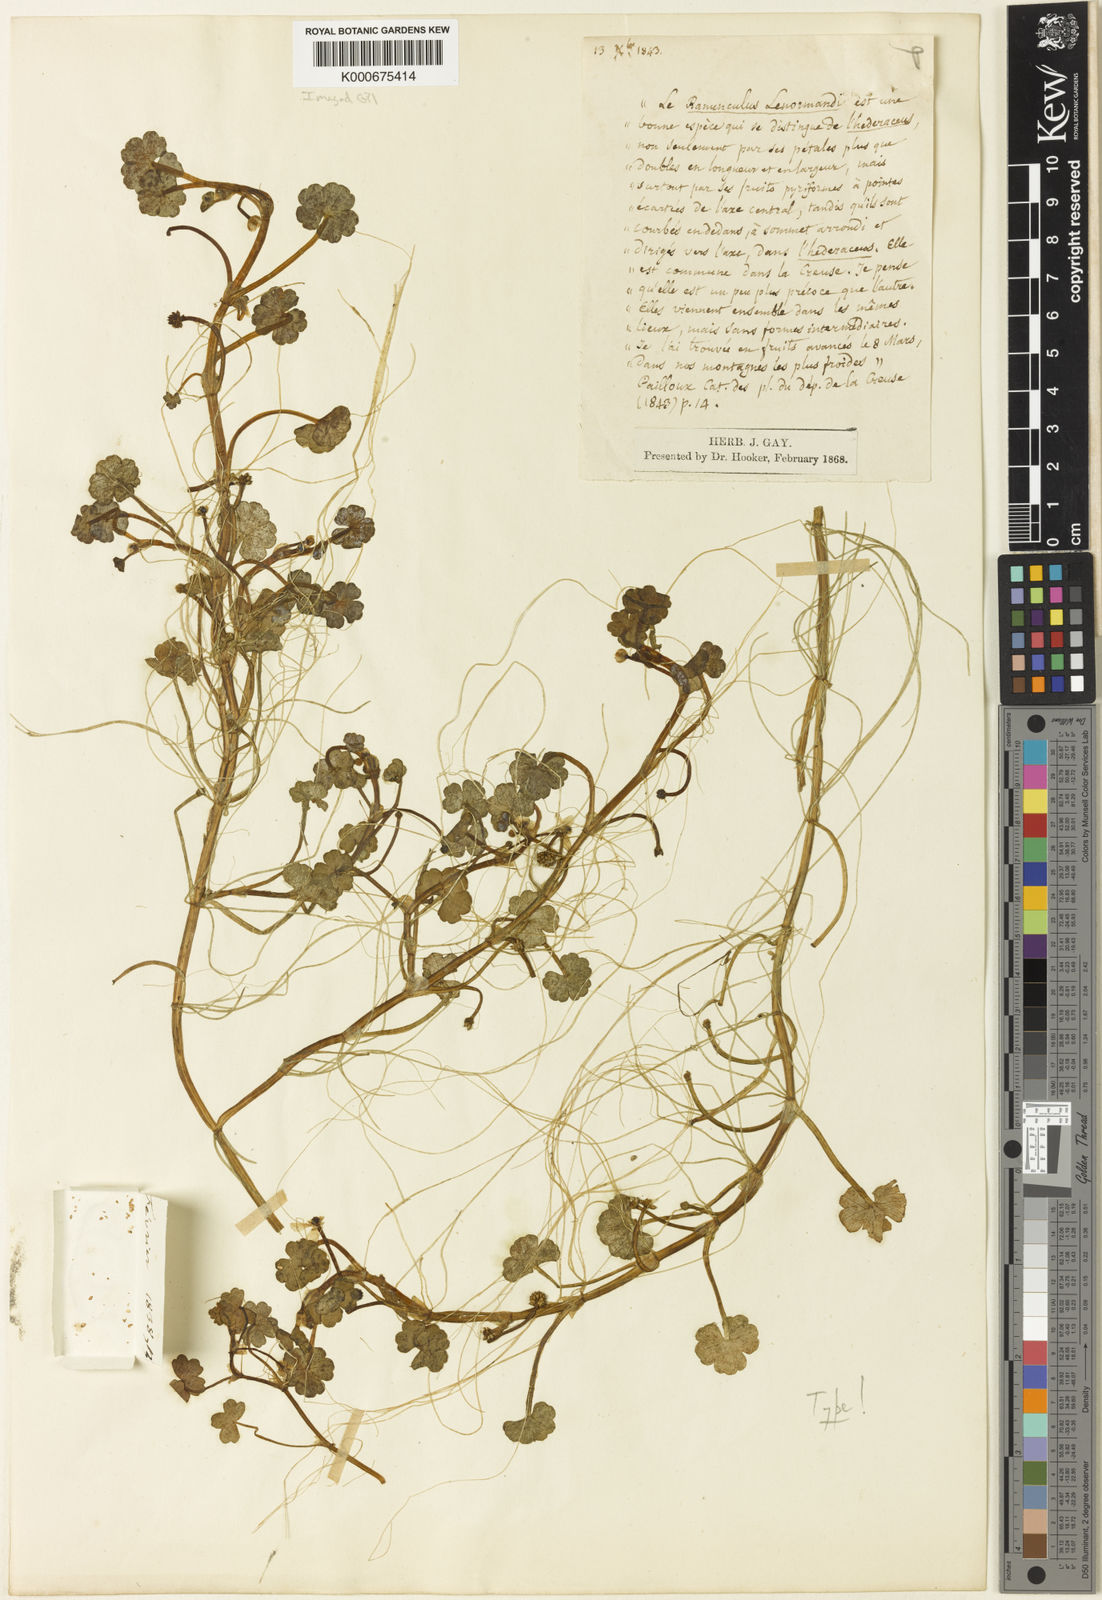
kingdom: Plantae
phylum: Tracheophyta
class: Magnoliopsida
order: Ranunculales
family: Ranunculaceae
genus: Ranunculus
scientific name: Ranunculus omiophyllus
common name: Round-leaved crowfoot
